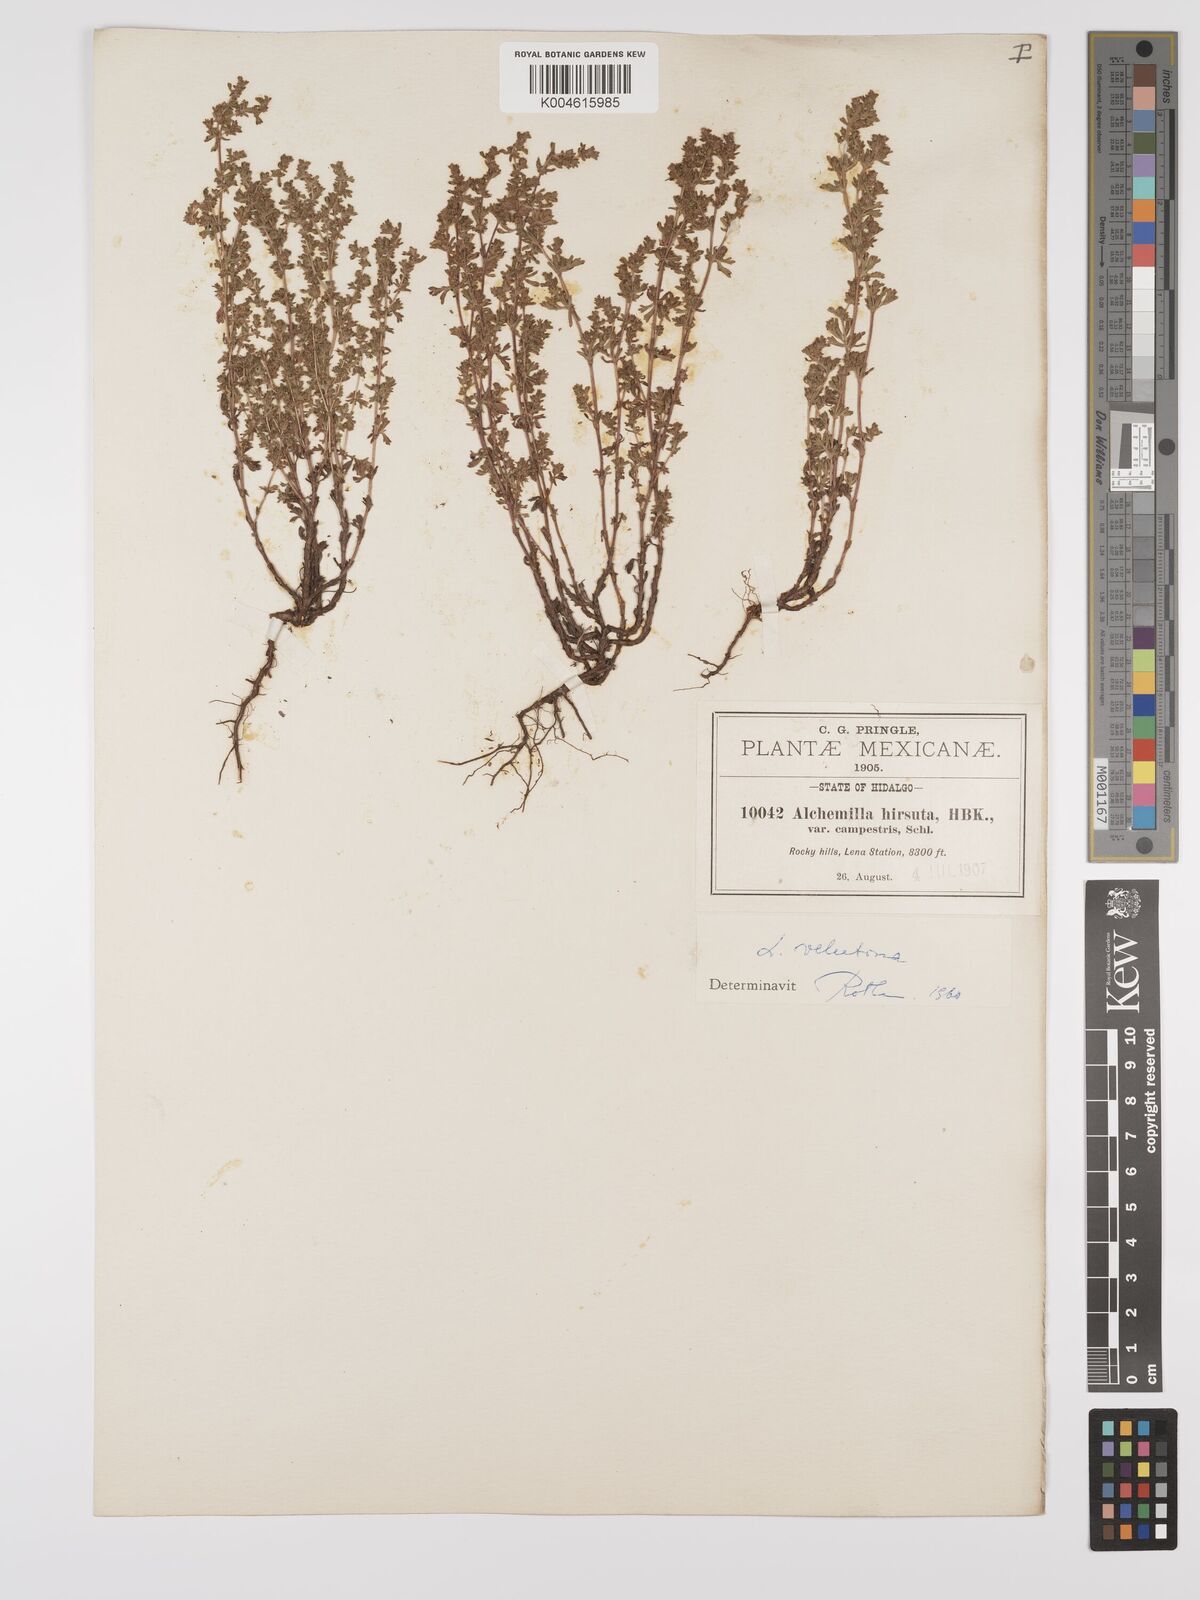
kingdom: Plantae
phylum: Tracheophyta
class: Magnoliopsida
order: Rosales
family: Rosaceae
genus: Lachemilla
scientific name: Lachemilla velutina
